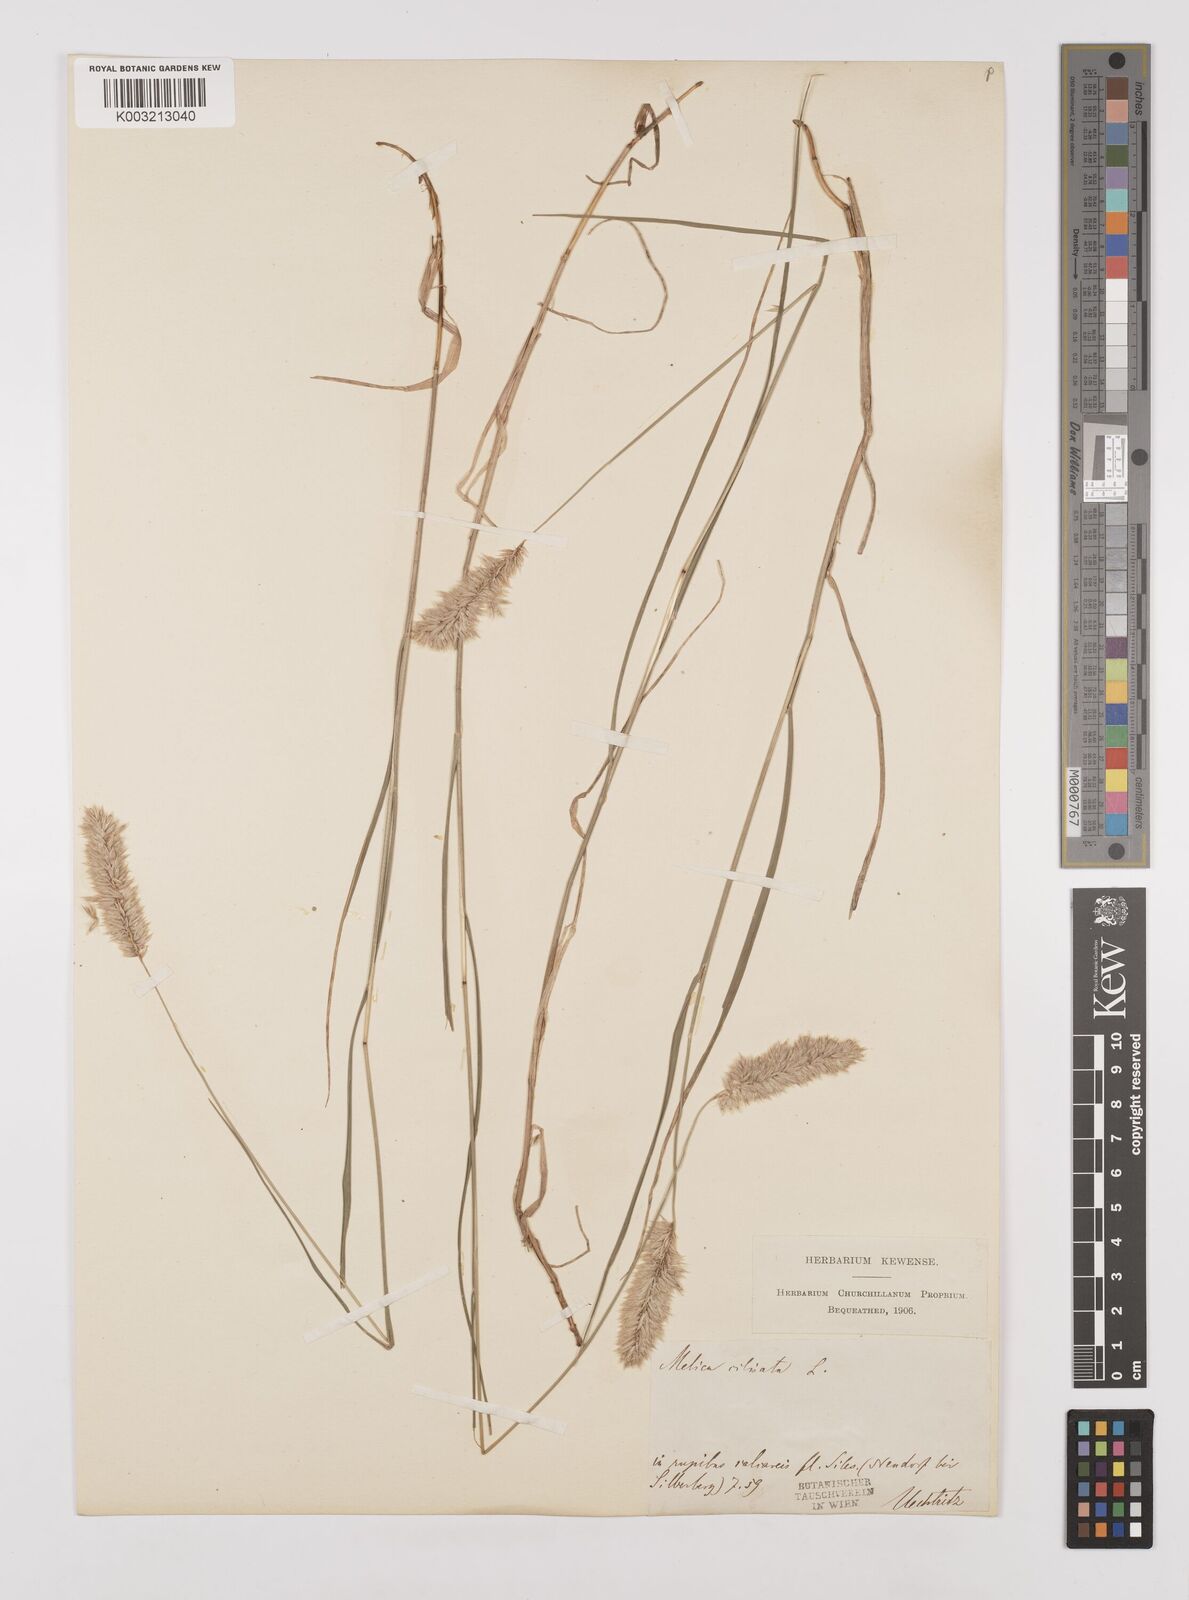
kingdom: Plantae
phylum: Tracheophyta
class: Liliopsida
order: Poales
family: Poaceae
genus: Melica
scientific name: Melica ciliata
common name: Hairy melicgrass
